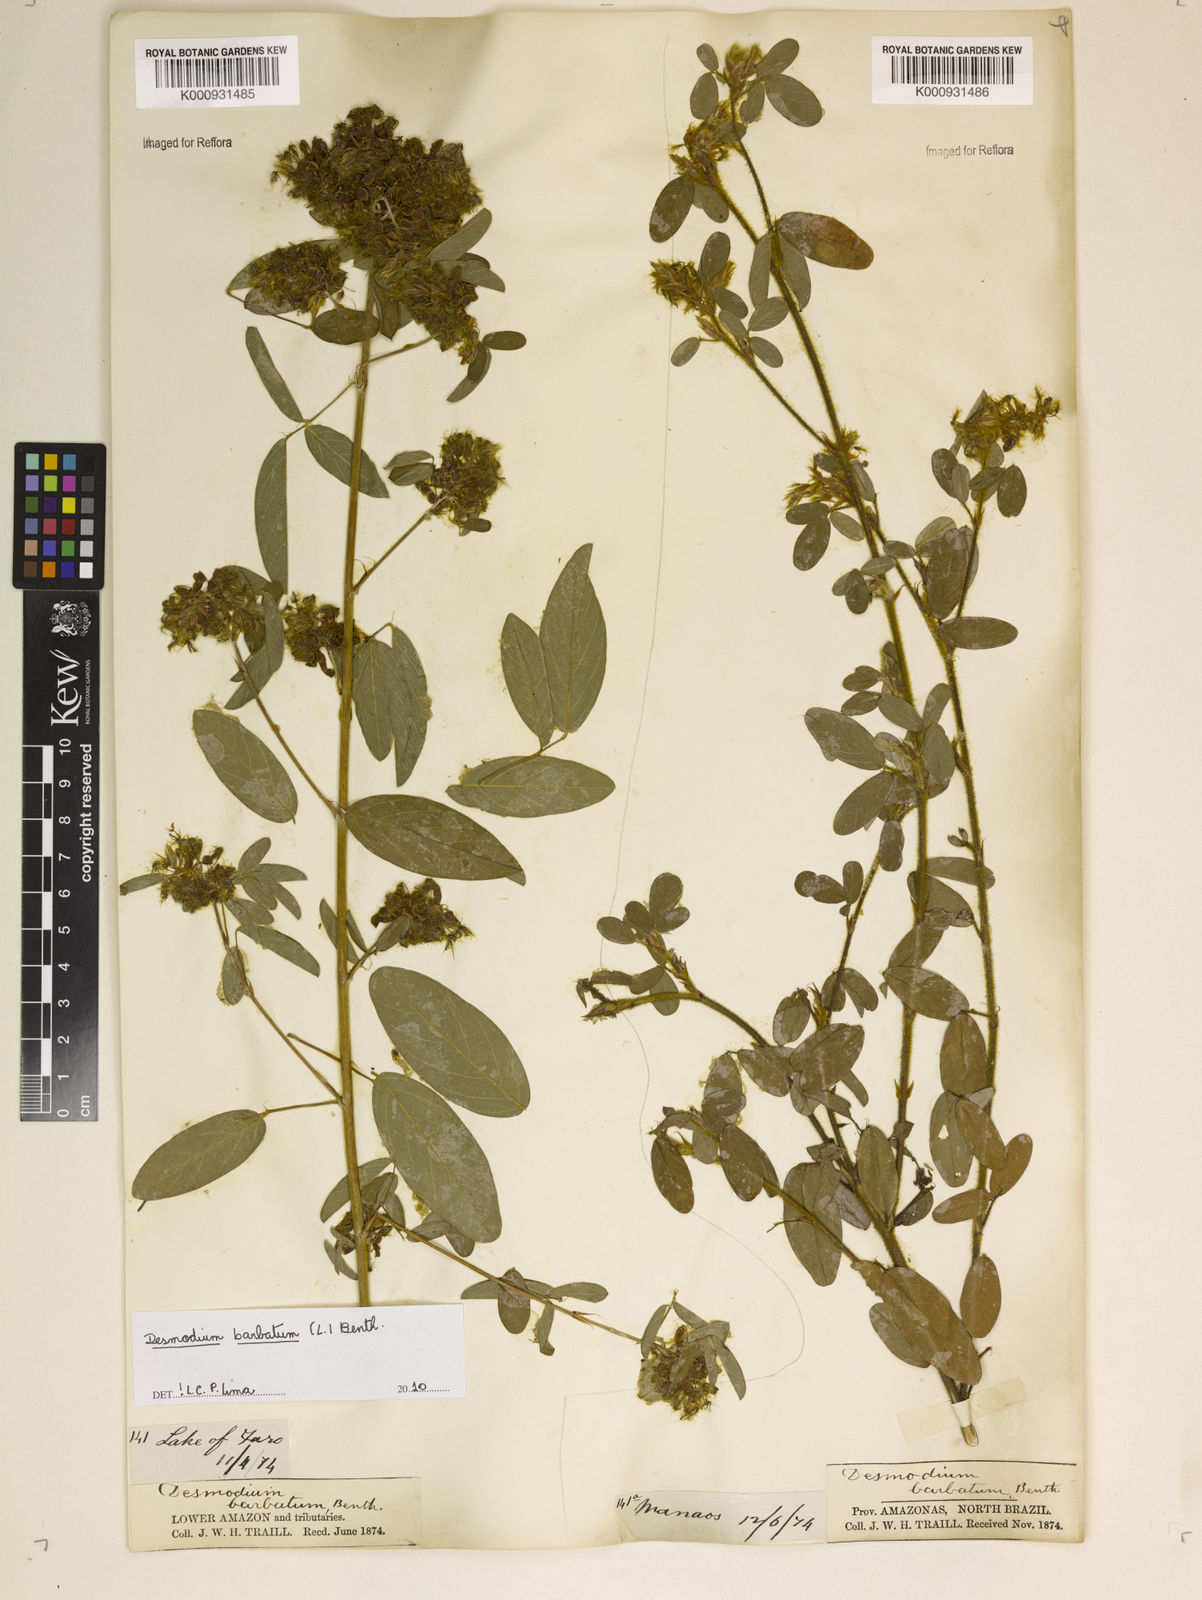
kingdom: Plantae
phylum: Tracheophyta
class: Magnoliopsida
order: Fabales
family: Fabaceae
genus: Grona
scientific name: Grona barbata
